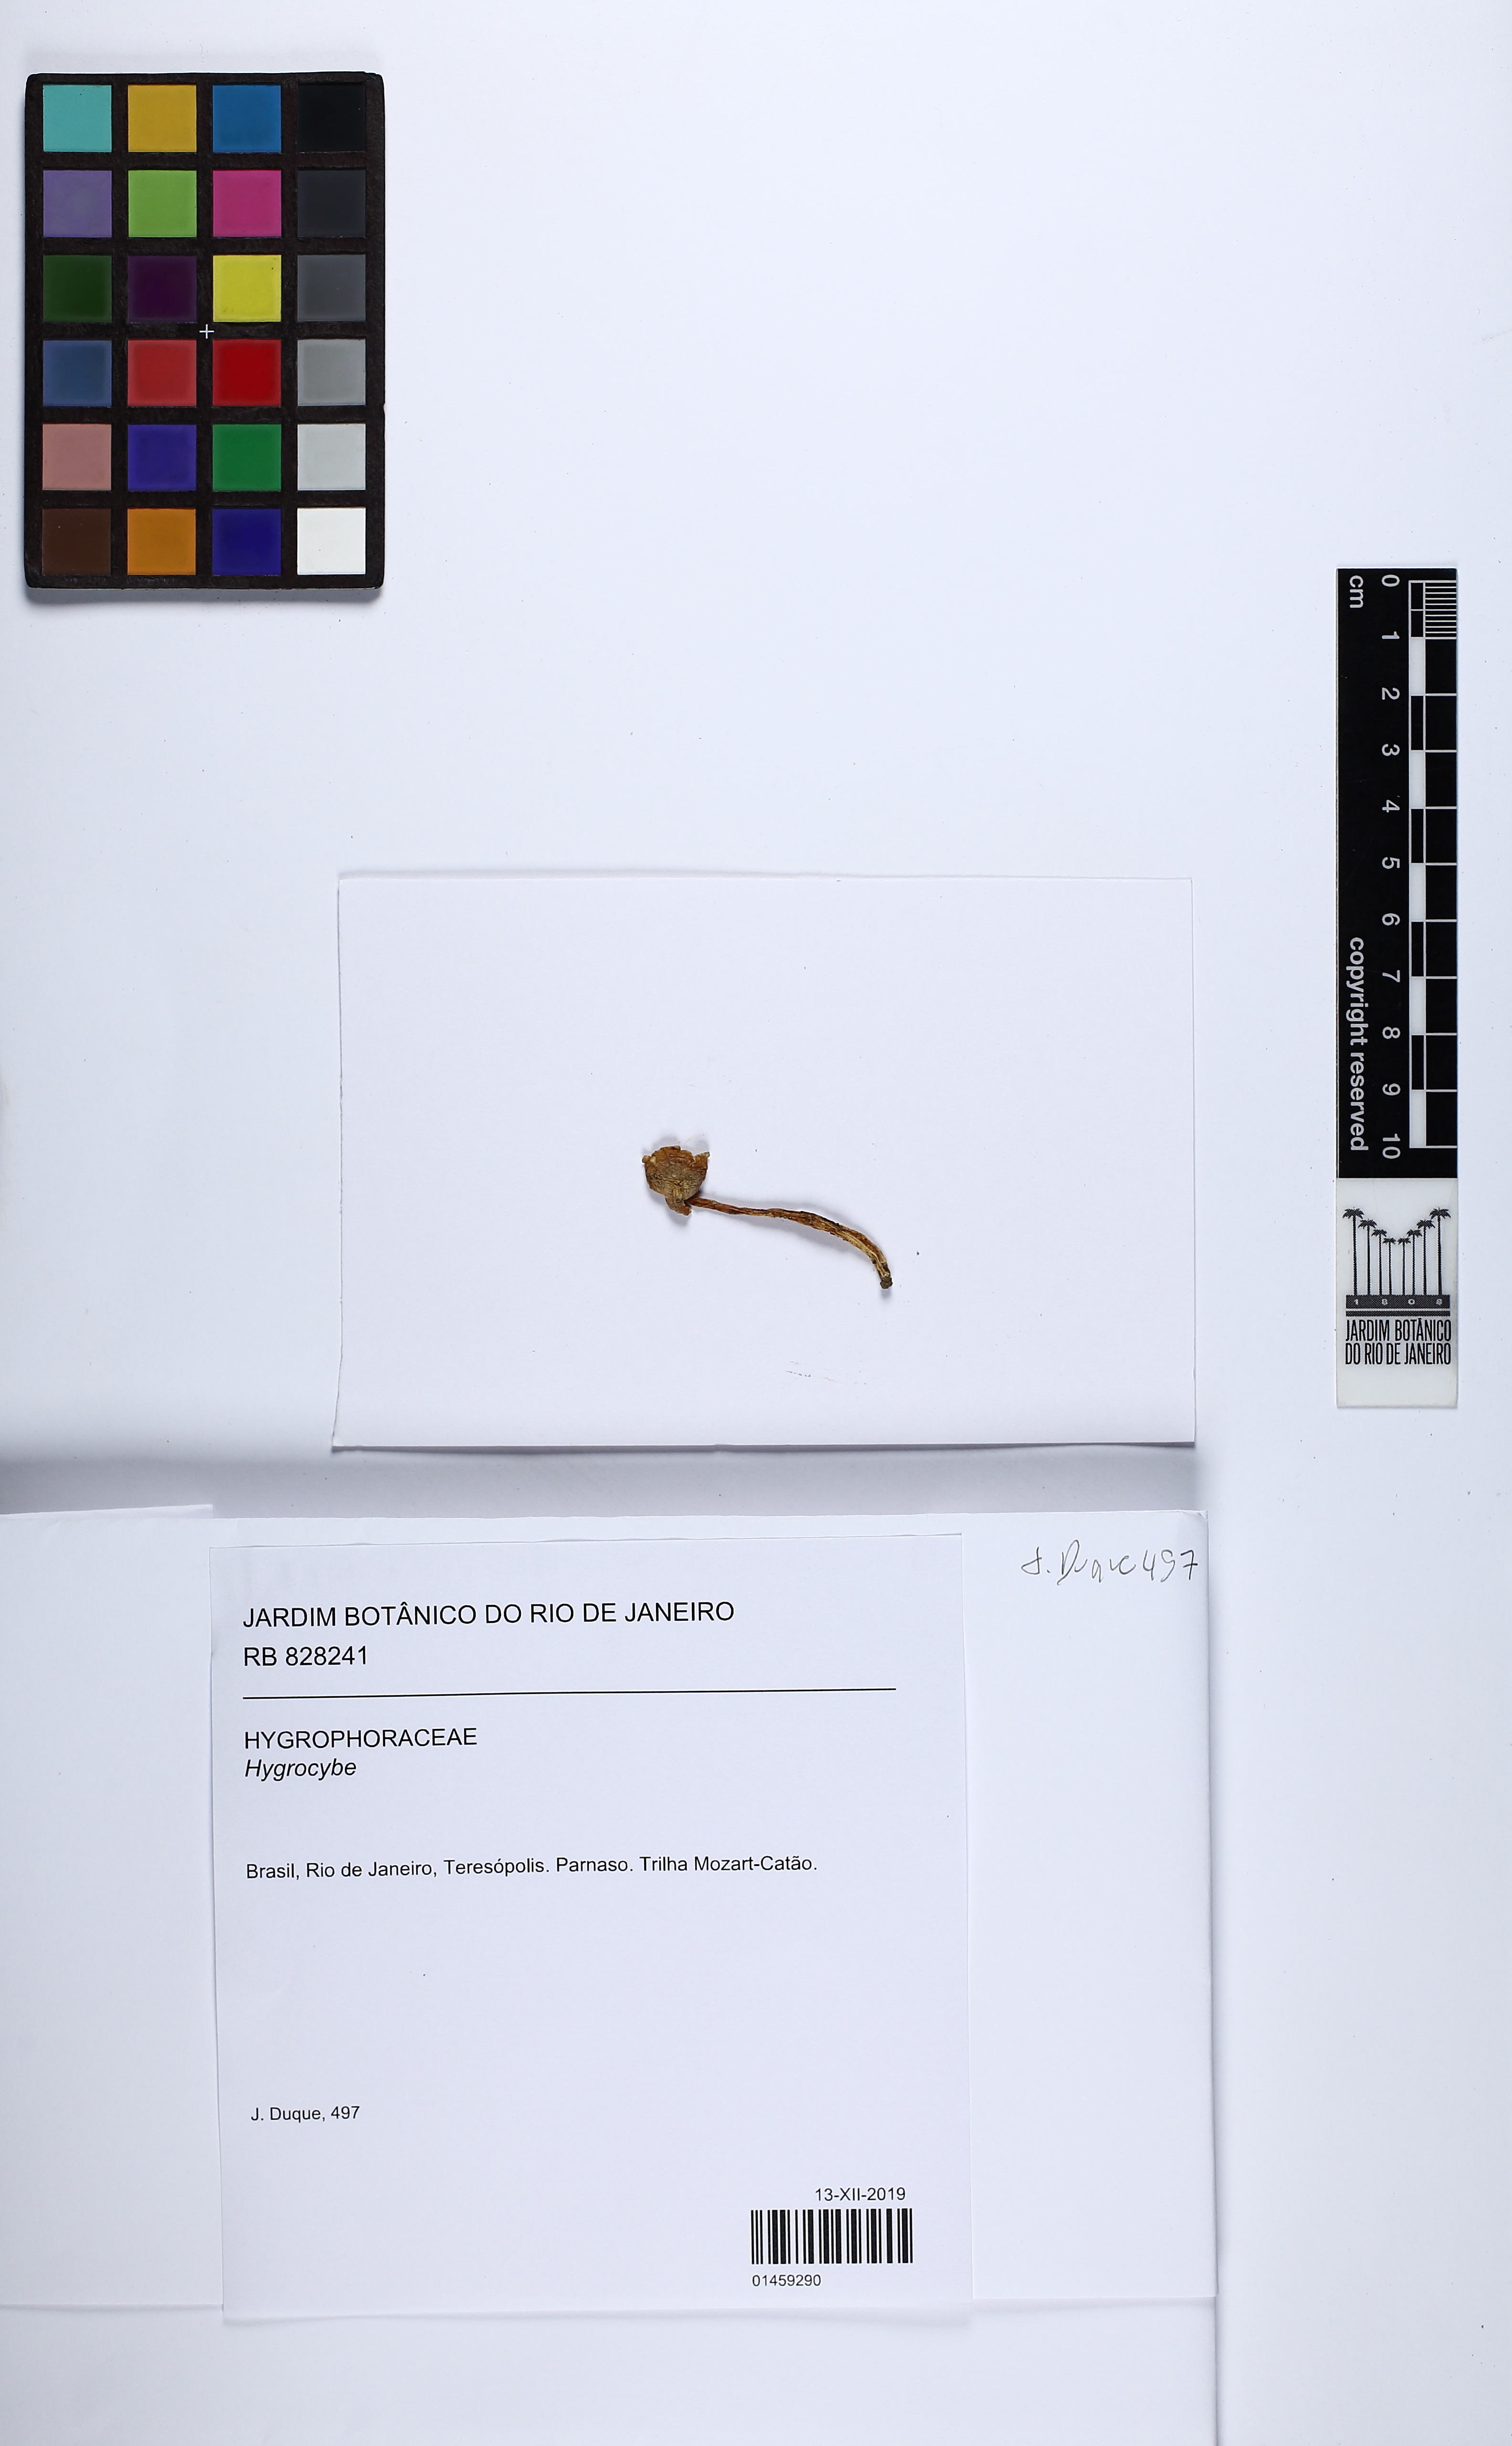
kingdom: Fungi
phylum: Basidiomycota
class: Agaricomycetes
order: Agaricales
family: Hygrophoraceae
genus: Hygrocybe
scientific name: Hygrocybe
